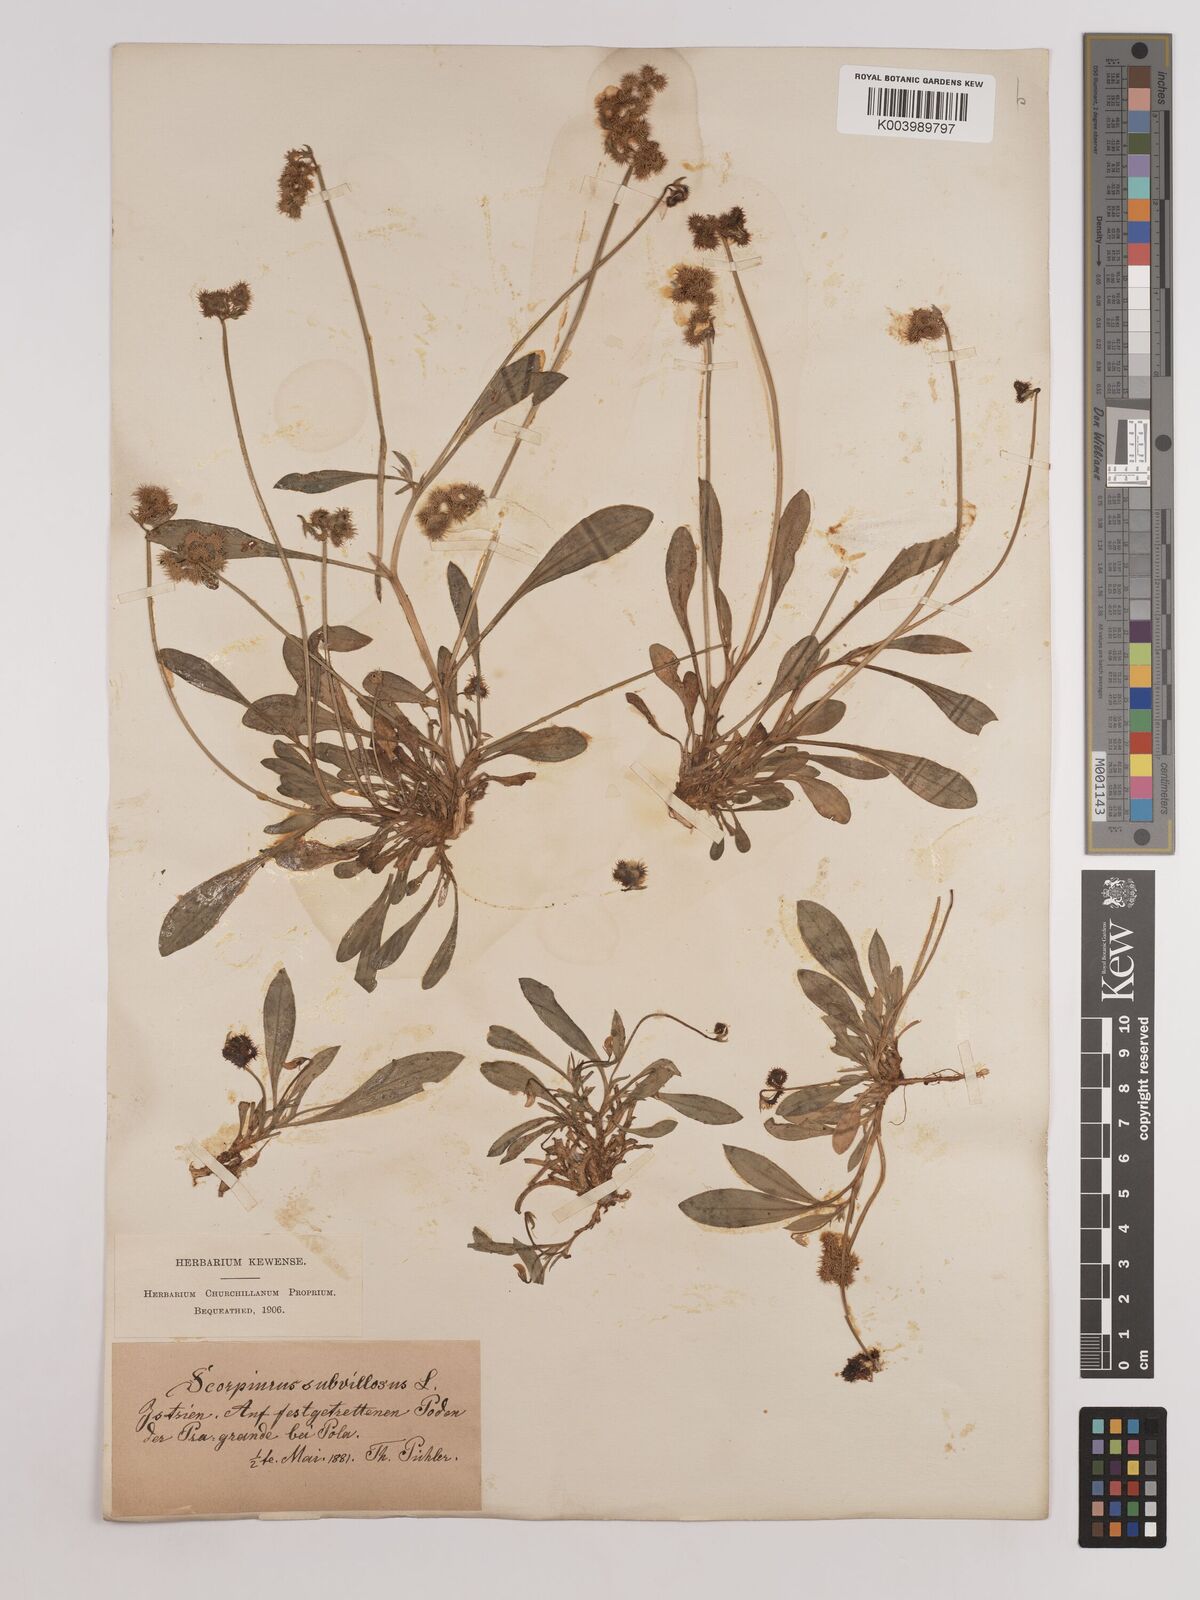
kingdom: Plantae
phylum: Tracheophyta
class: Magnoliopsida
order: Fabales
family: Fabaceae
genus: Scorpiurus
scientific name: Scorpiurus muricatus
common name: Caterpillar-plant
